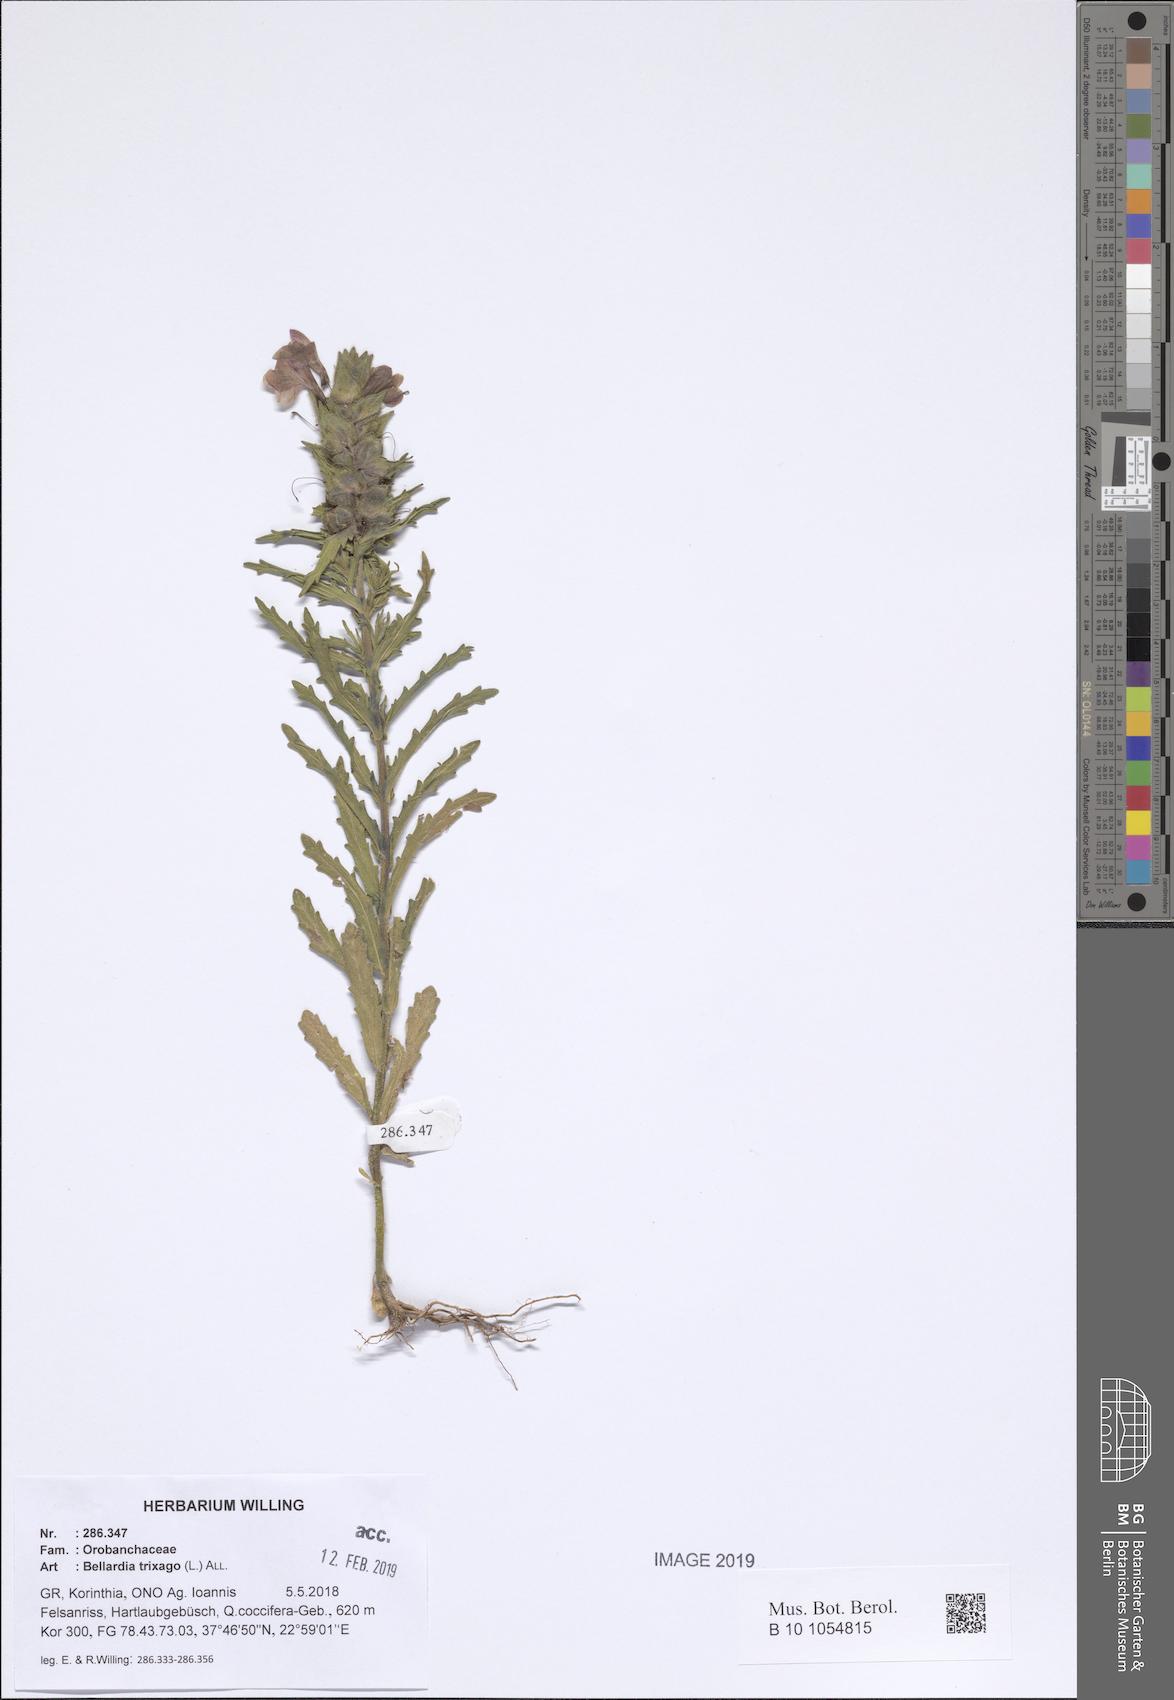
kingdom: Plantae
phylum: Tracheophyta
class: Magnoliopsida
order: Lamiales
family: Orobanchaceae
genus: Bellardia
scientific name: Bellardia trixago
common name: Mediterranean lineseed
